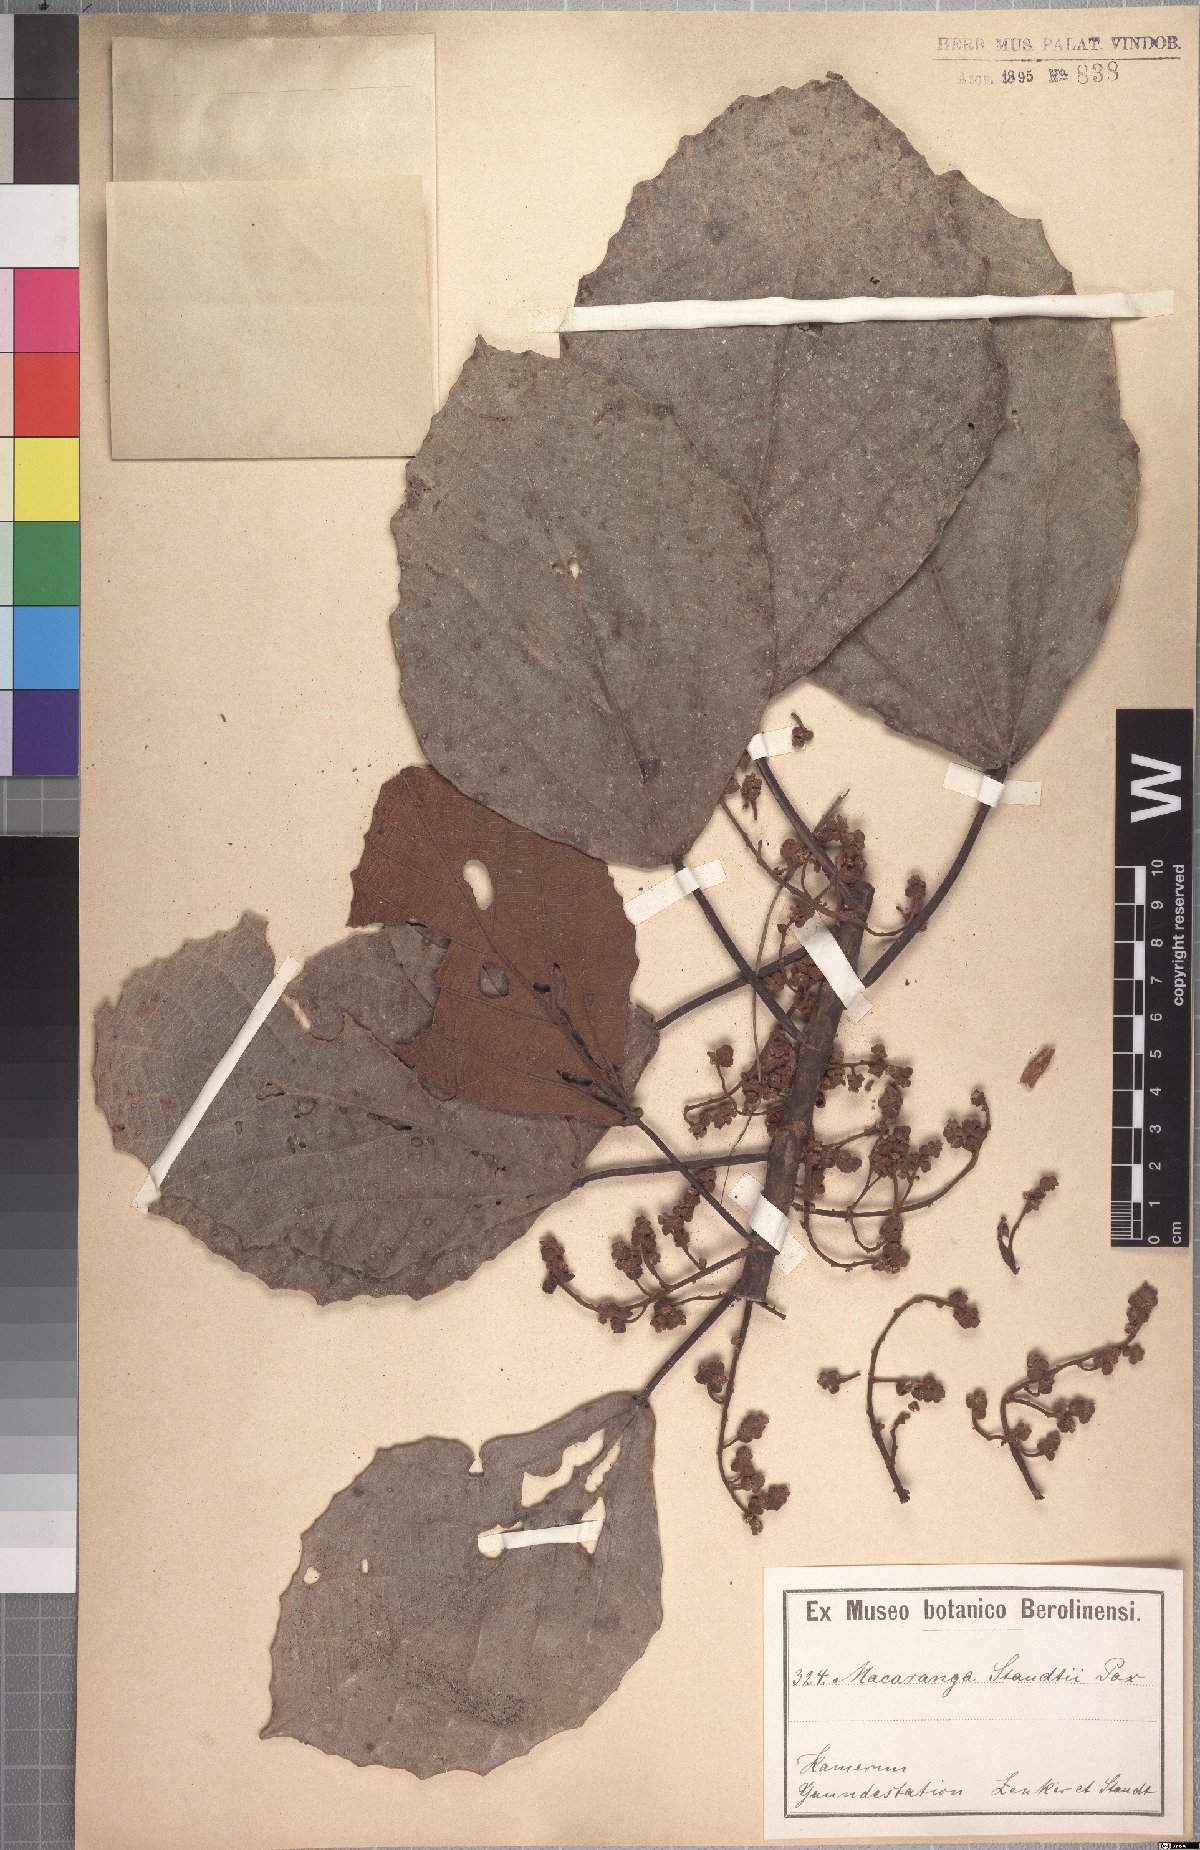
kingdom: Plantae
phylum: Tracheophyta
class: Magnoliopsida
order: Malpighiales
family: Euphorbiaceae
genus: Macaranga
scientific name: Macaranga staudtii
